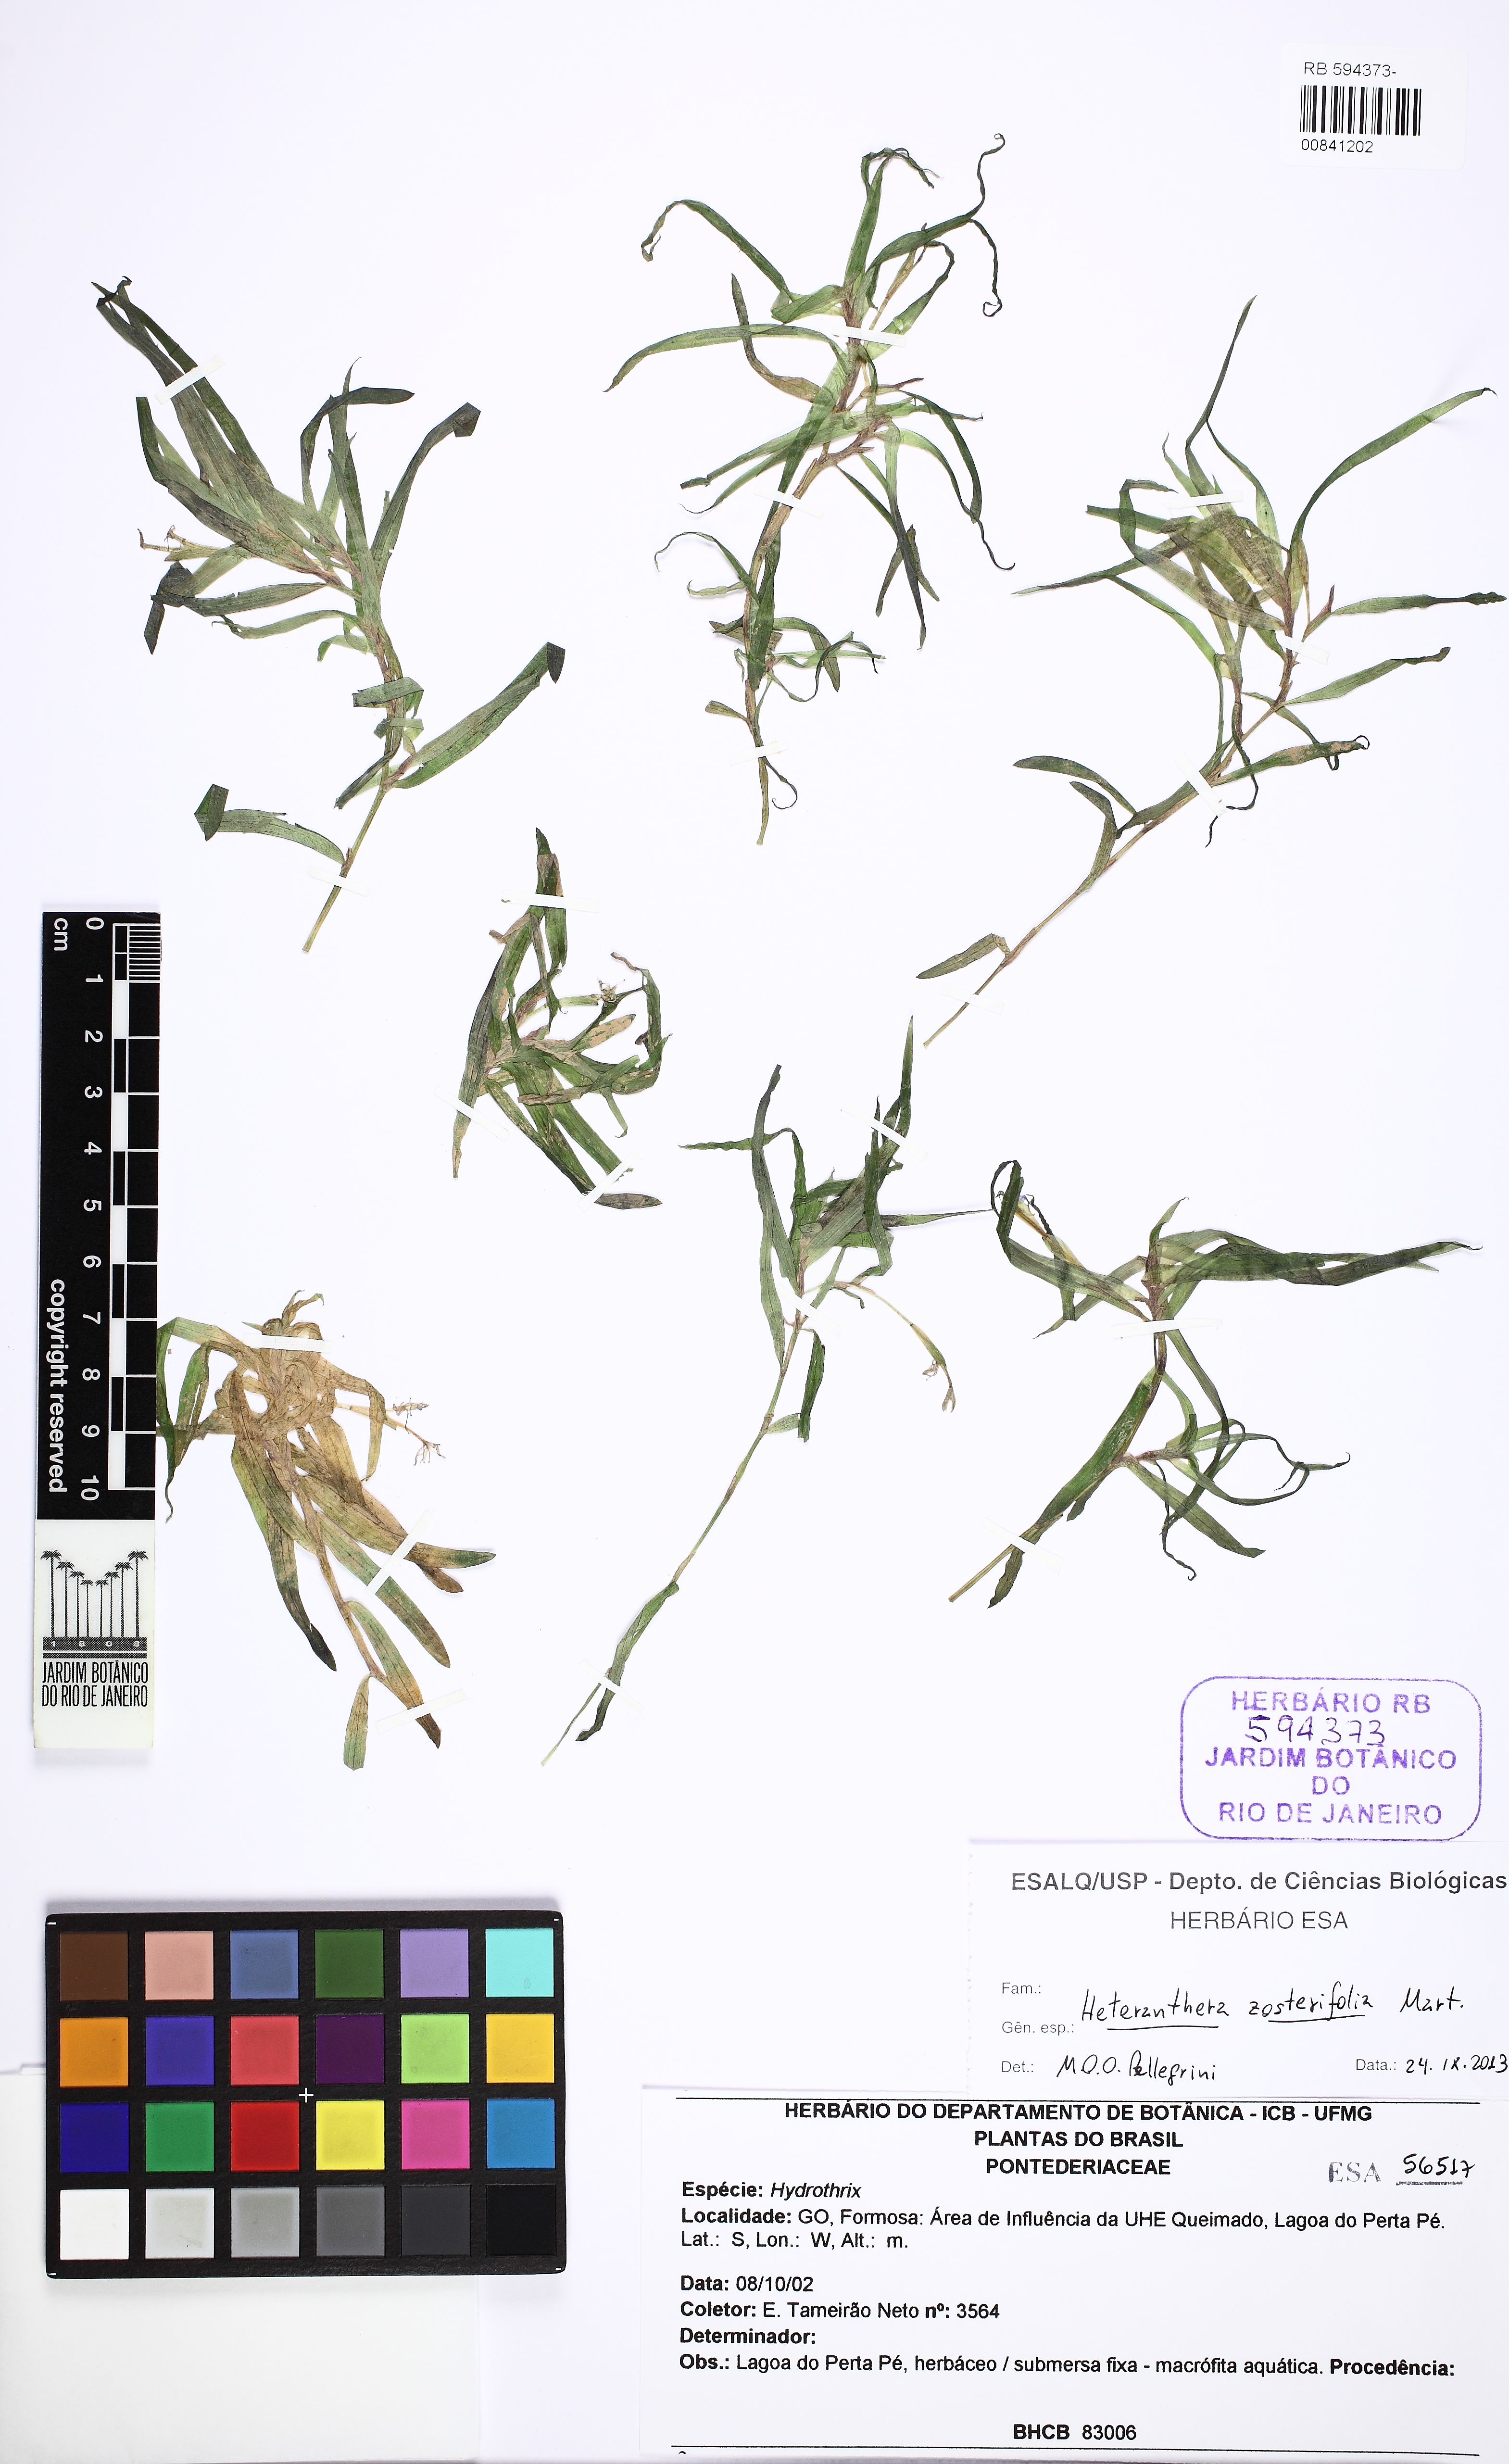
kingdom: Plantae
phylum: Tracheophyta
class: Liliopsida
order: Commelinales
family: Pontederiaceae
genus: Heteranthera
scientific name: Heteranthera zosterifolia
